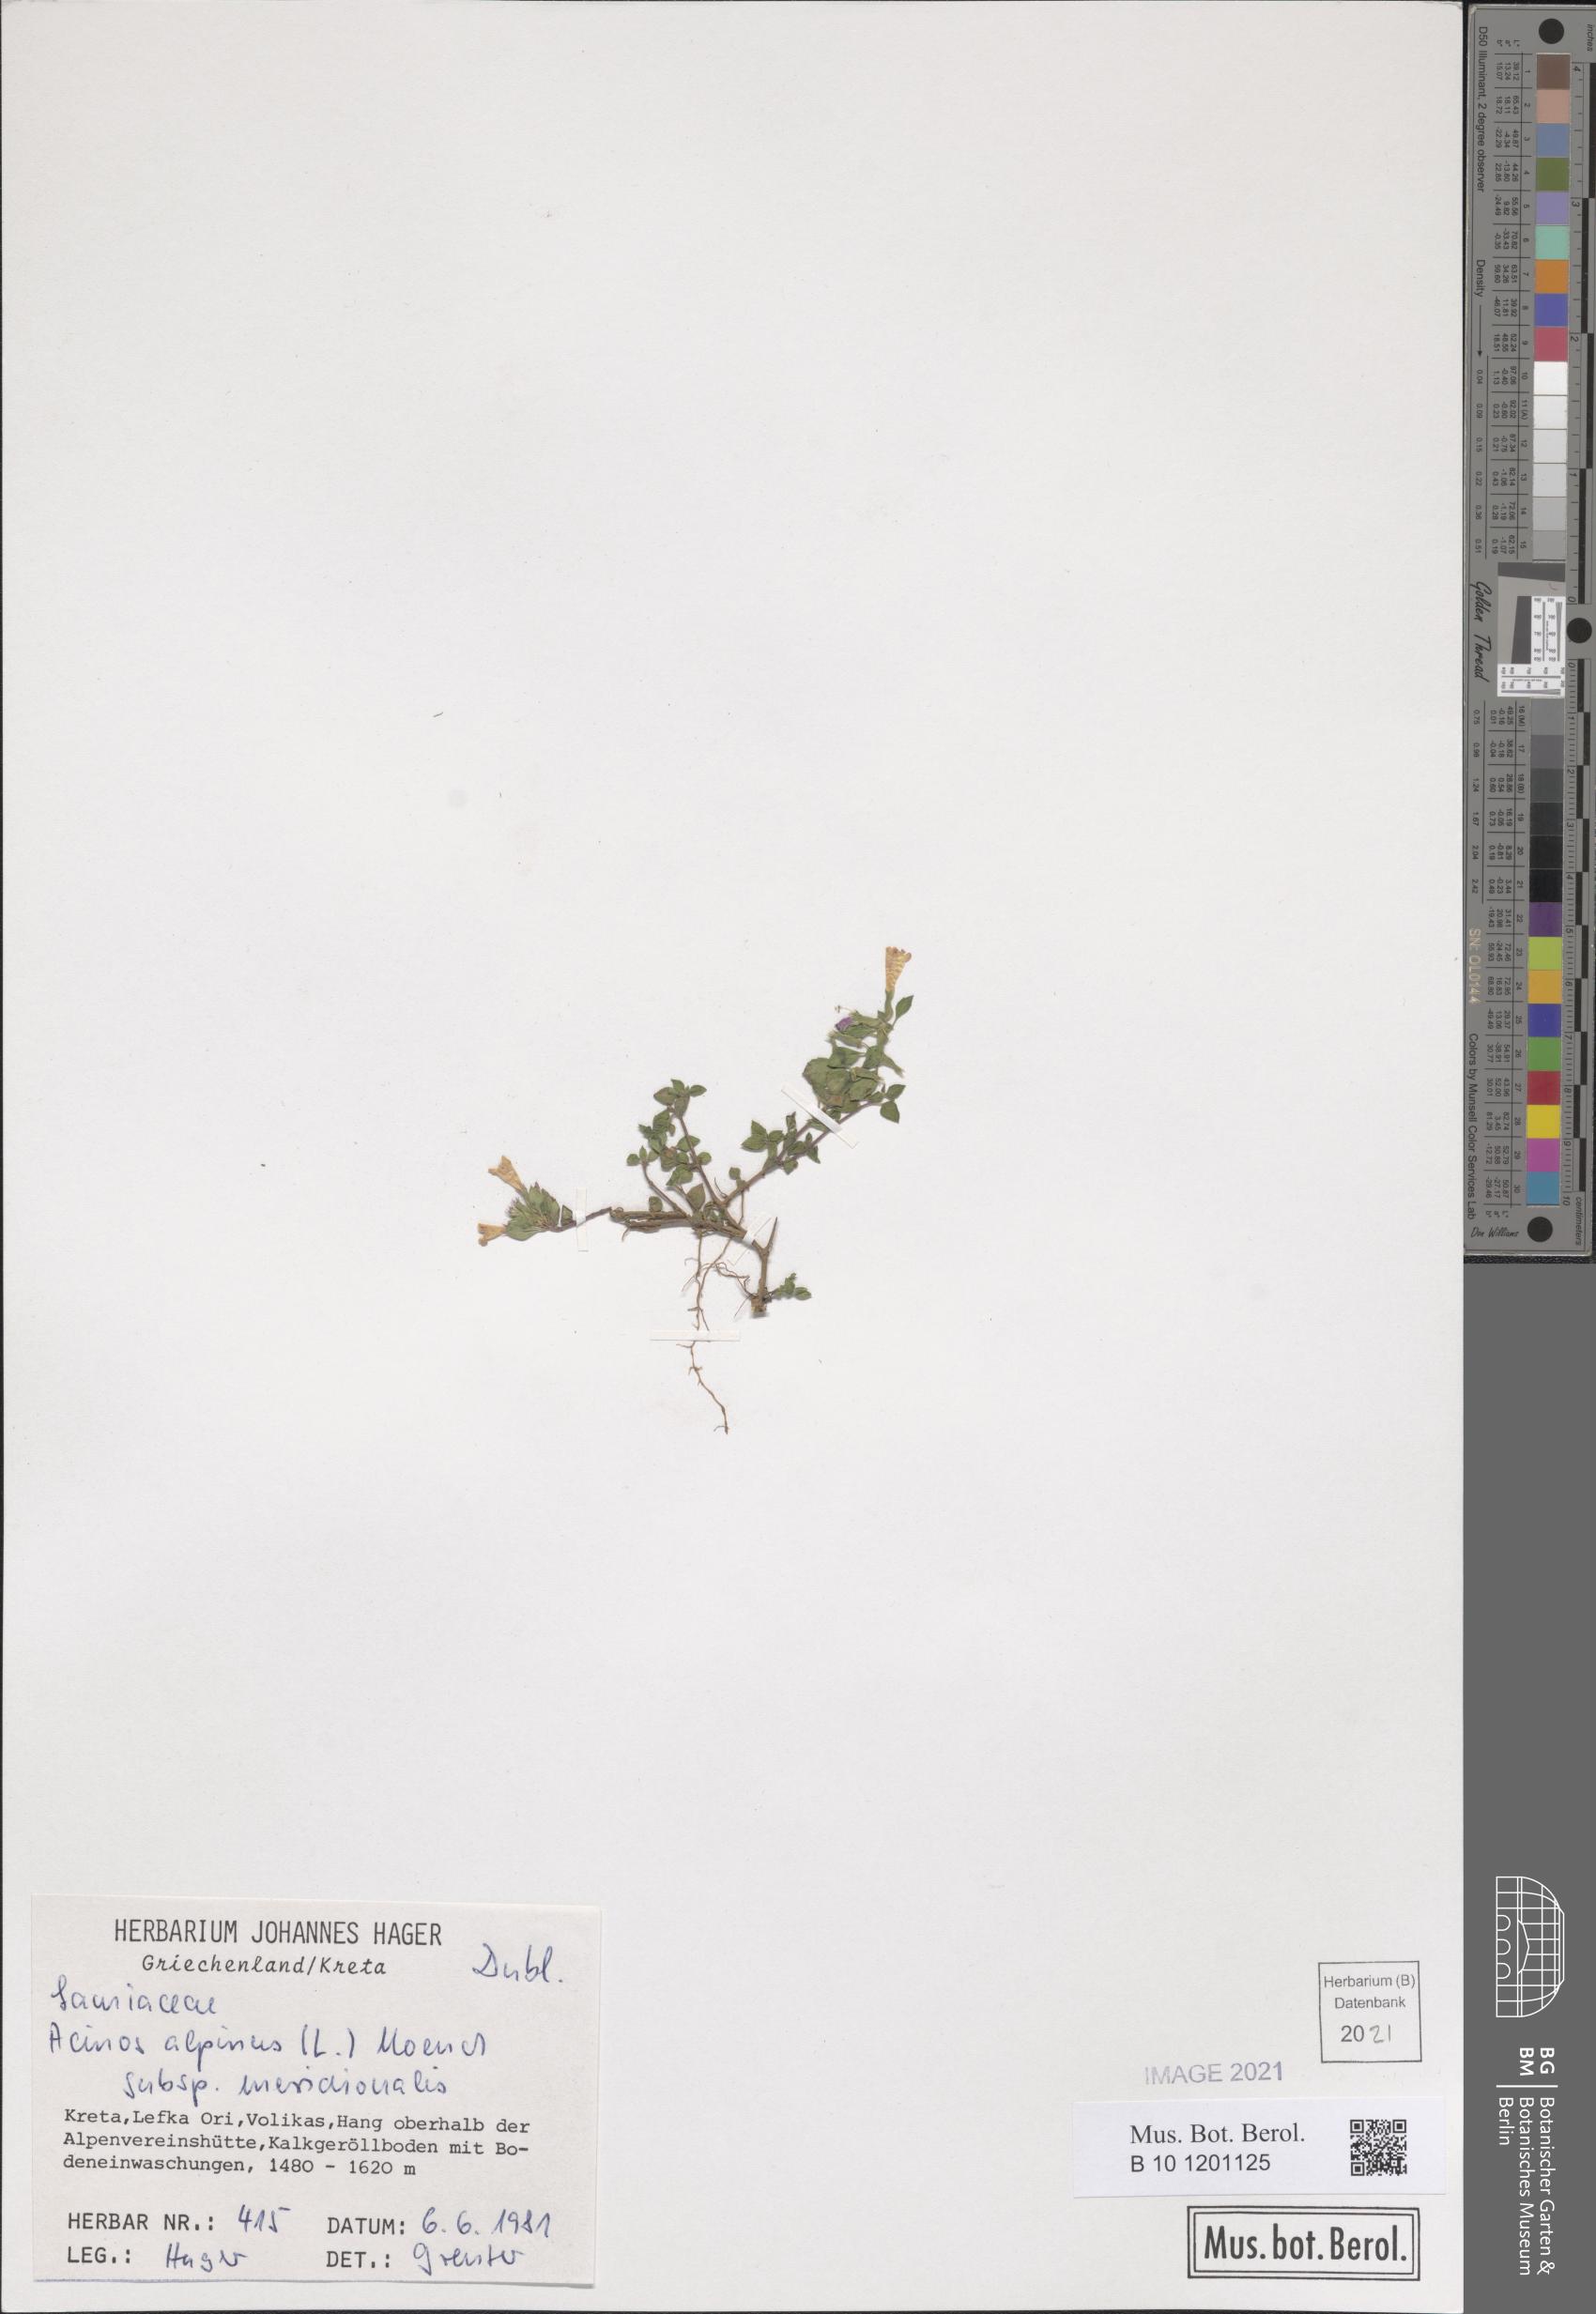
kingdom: Plantae
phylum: Tracheophyta
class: Magnoliopsida
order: Lamiales
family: Lamiaceae
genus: Clinopodium
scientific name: Clinopodium alpinum
